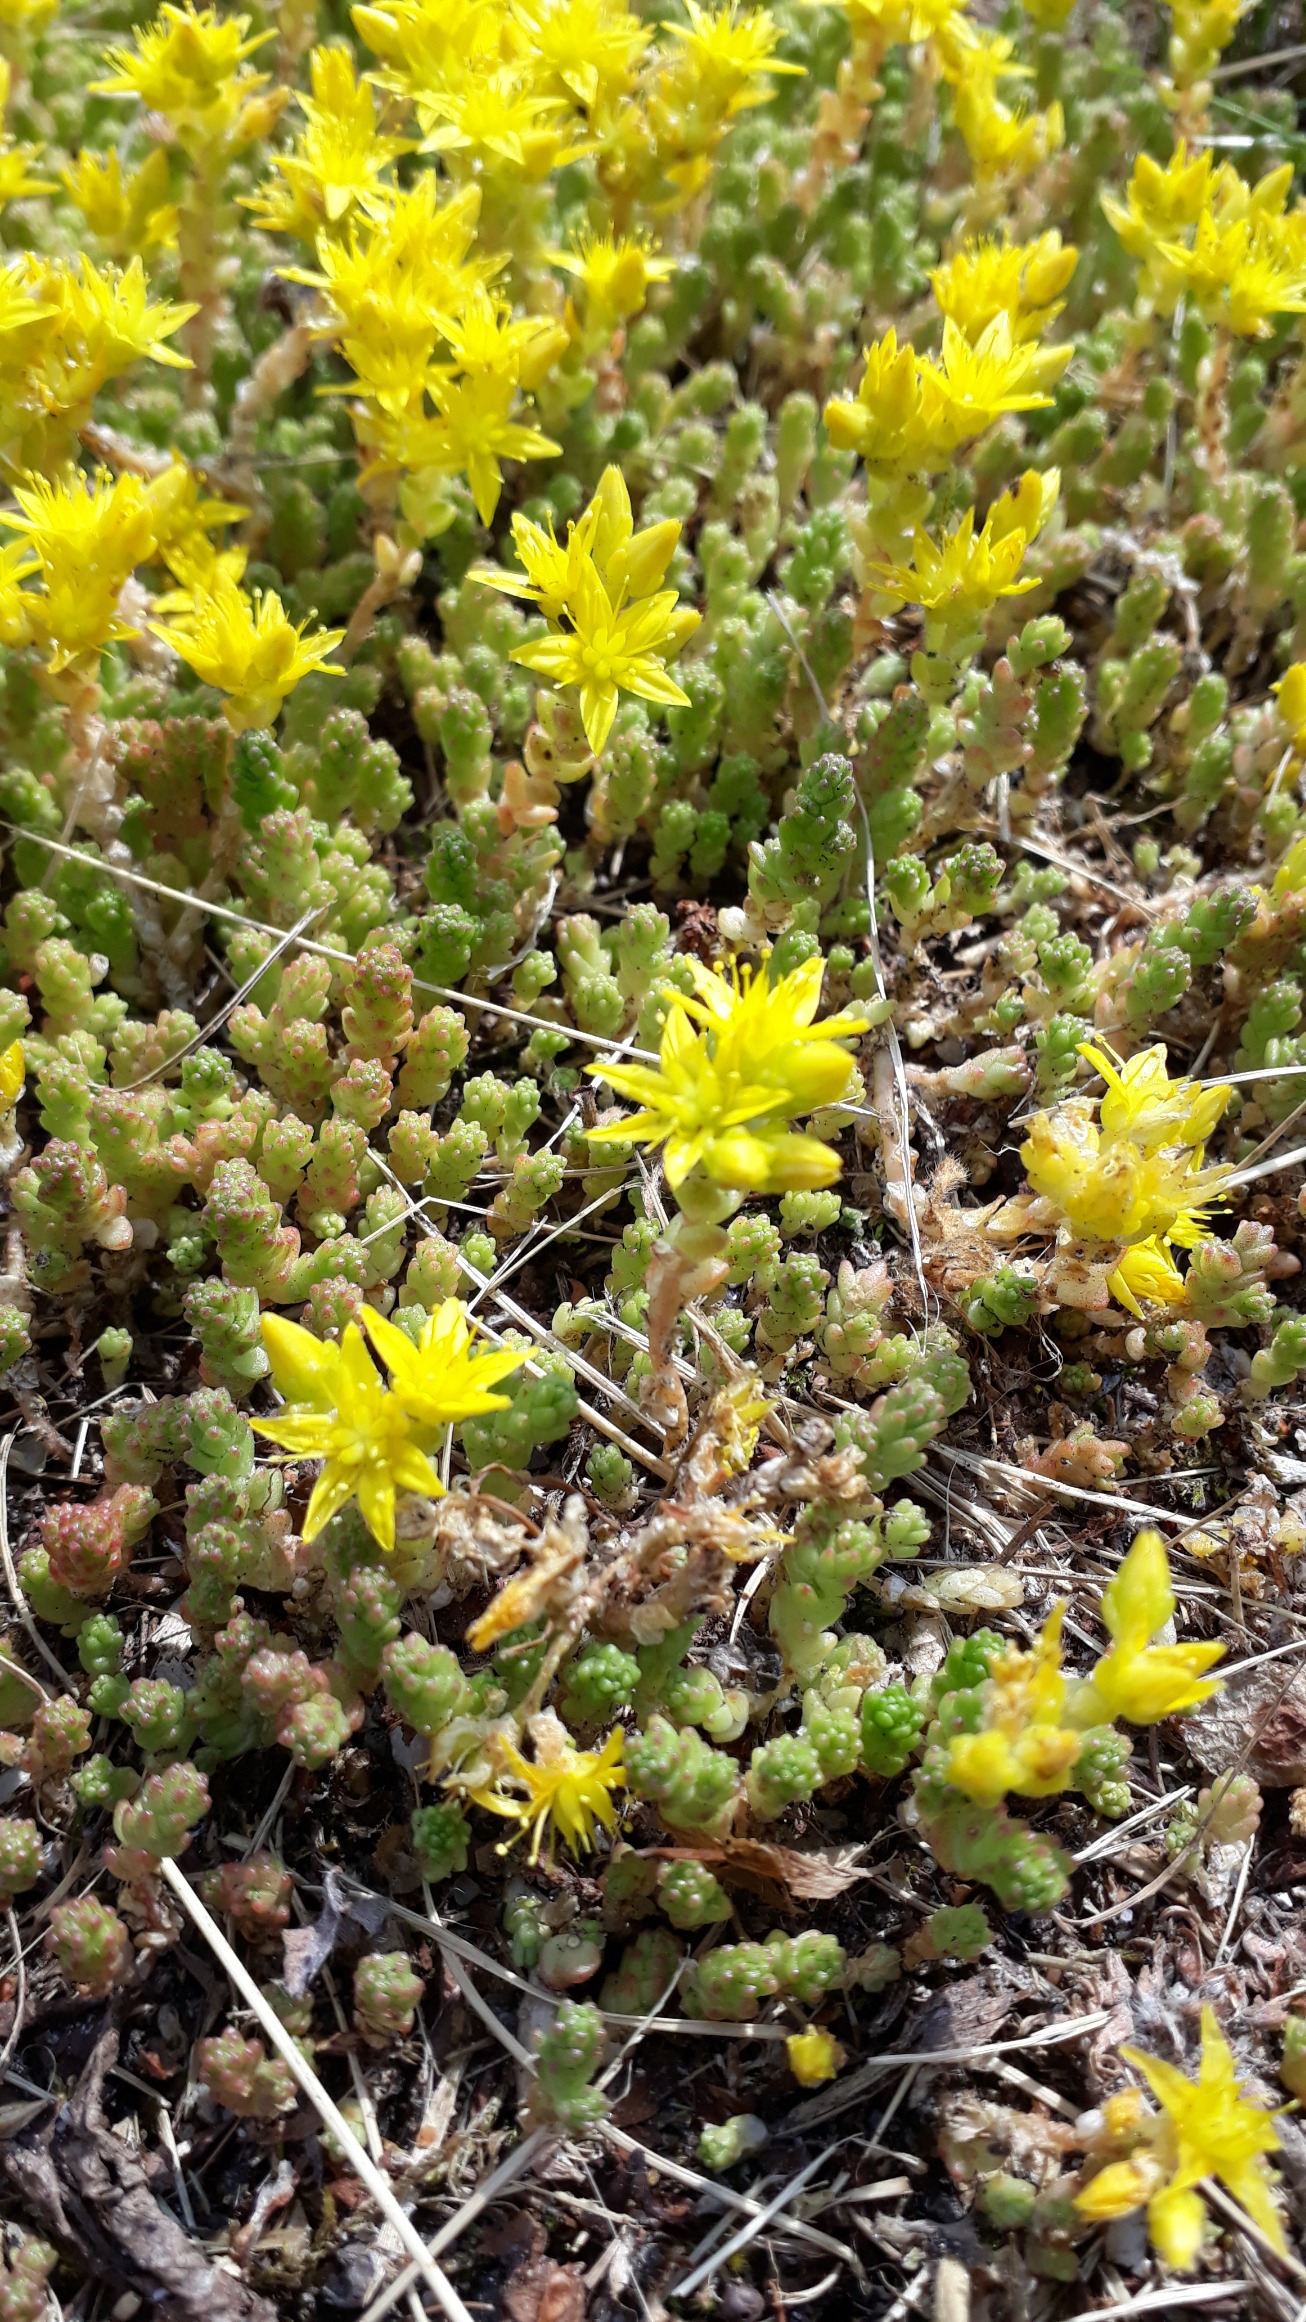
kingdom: Plantae
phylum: Tracheophyta
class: Magnoliopsida
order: Saxifragales
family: Crassulaceae
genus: Sedum
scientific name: Sedum acre
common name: Bidende stenurt
